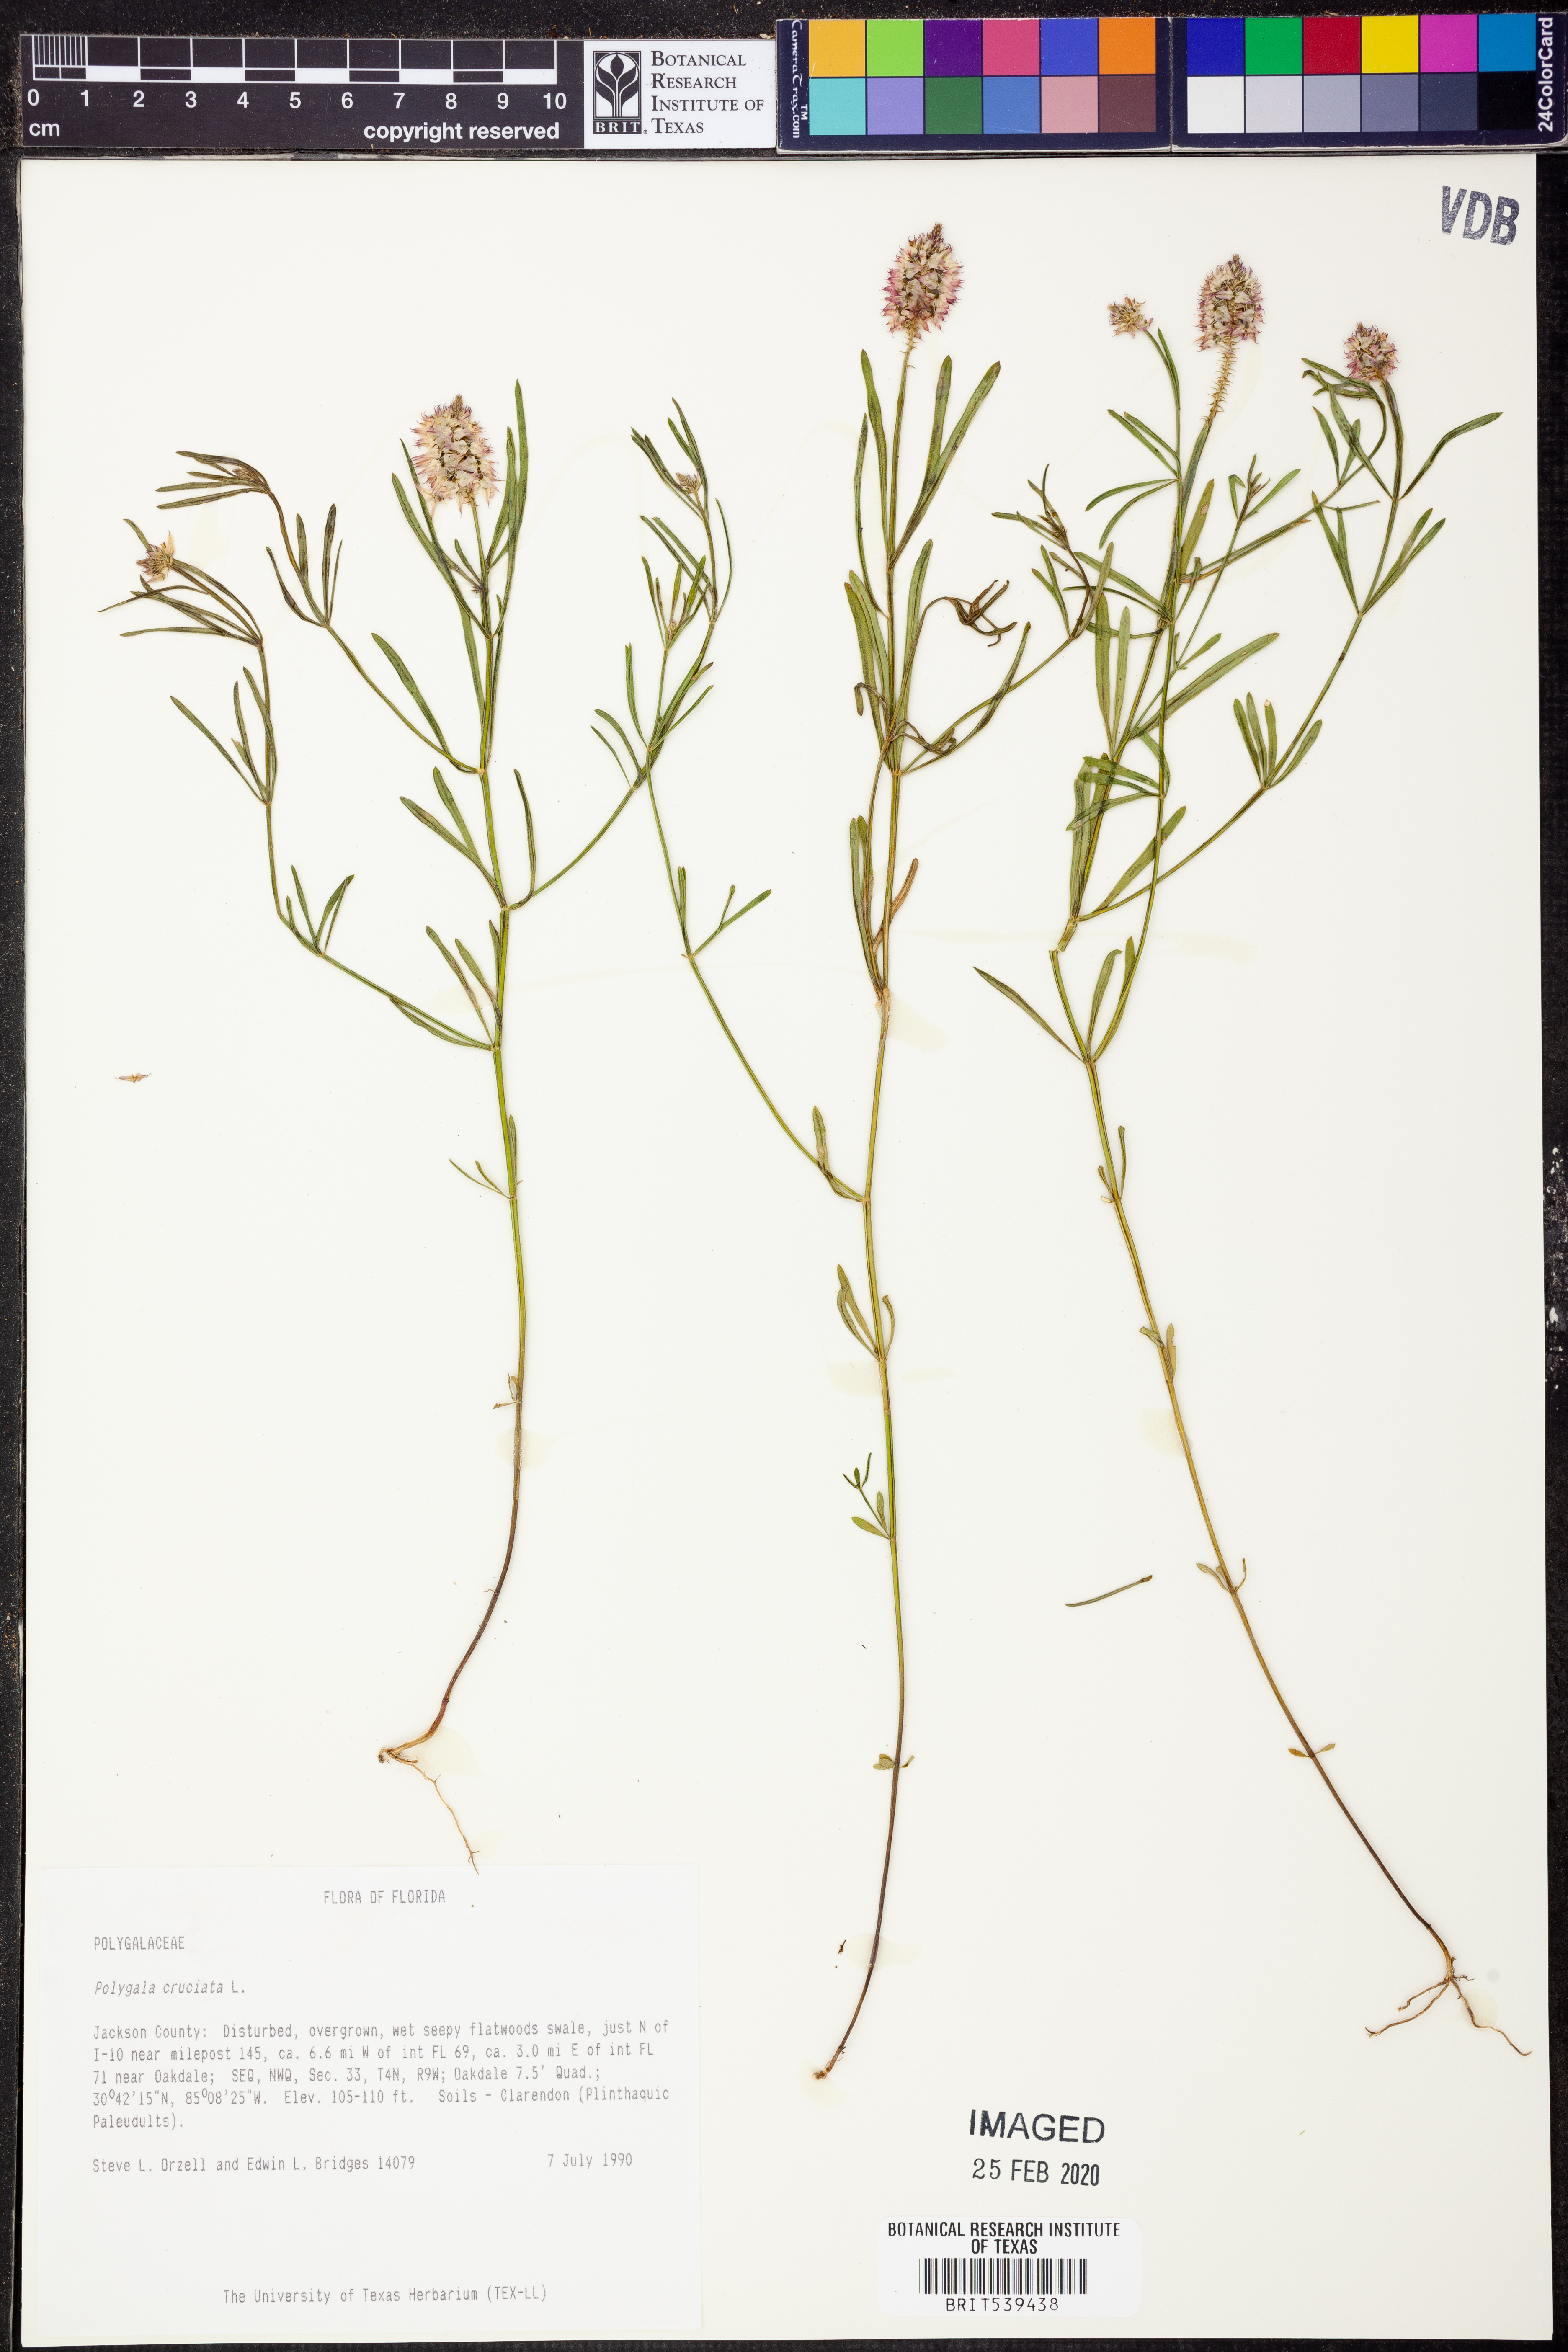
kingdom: Plantae
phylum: Tracheophyta
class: Magnoliopsida
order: Fabales
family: Polygalaceae
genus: Polygala
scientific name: Polygala cruciata
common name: Drumheads
